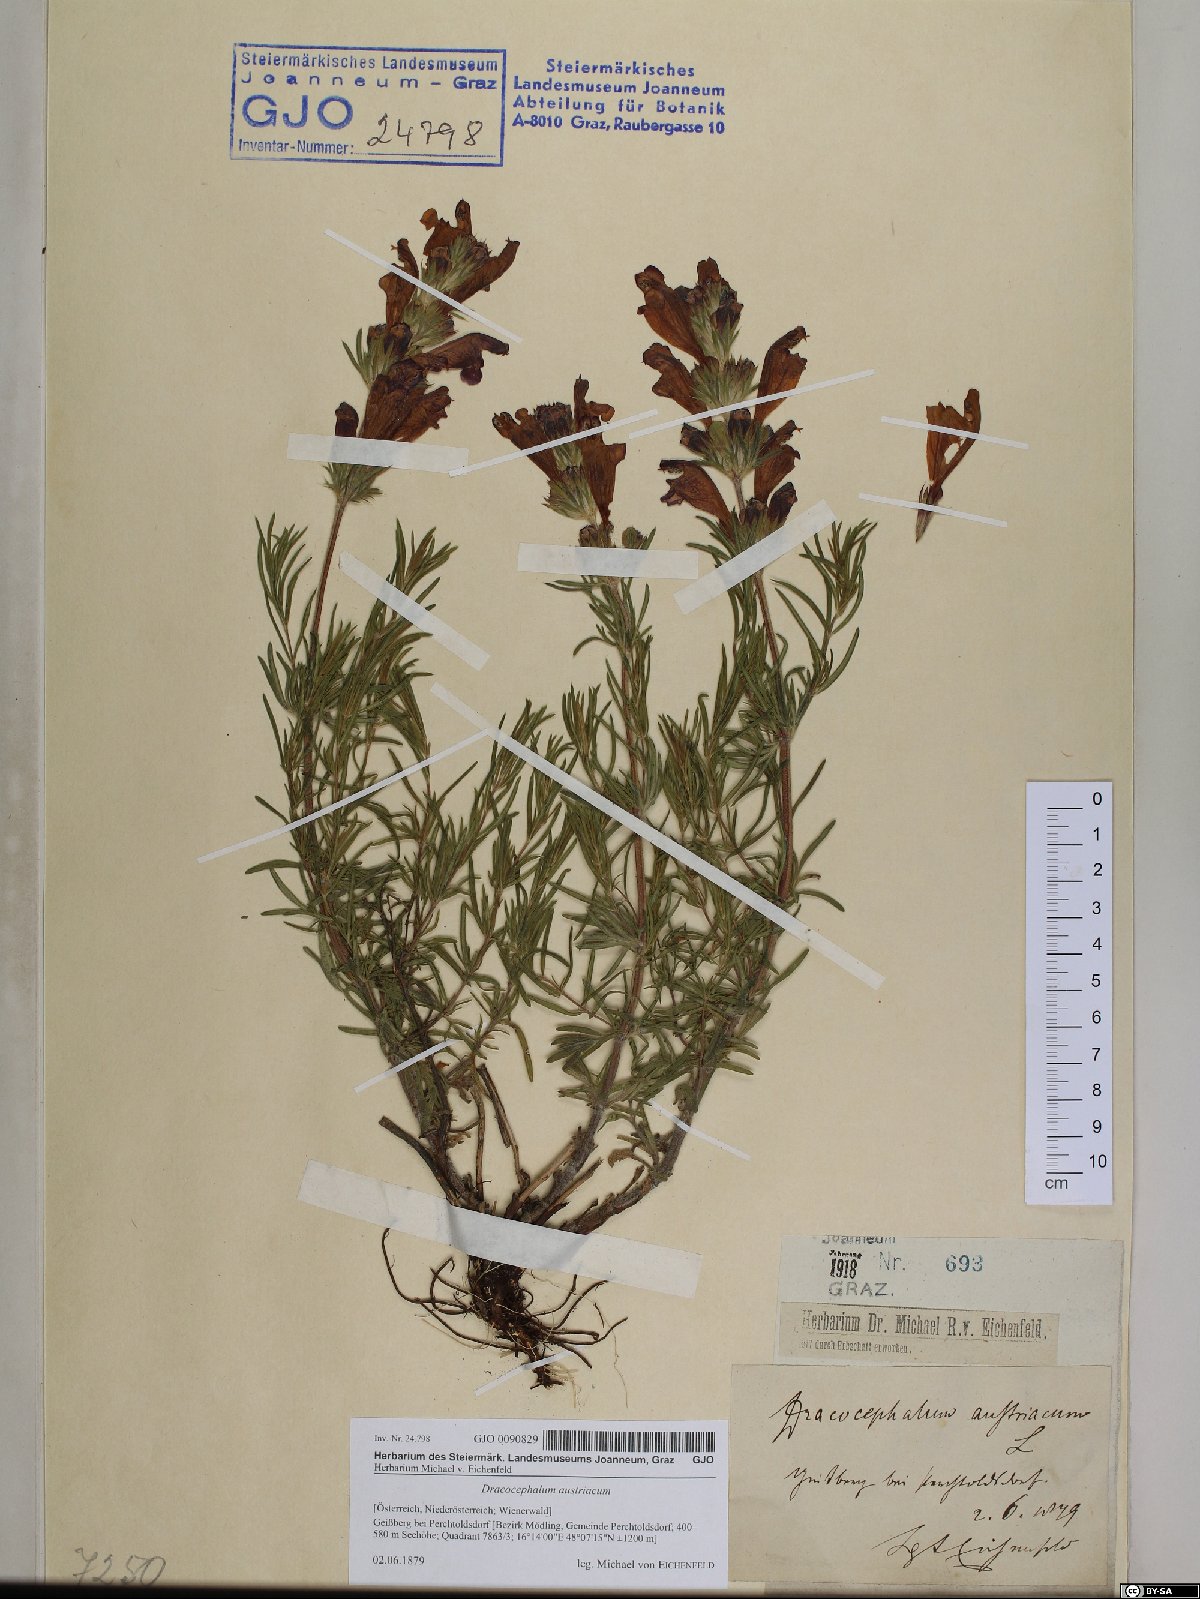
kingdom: Plantae
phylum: Tracheophyta
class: Magnoliopsida
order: Lamiales
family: Lamiaceae
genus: Dracocephalum
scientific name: Dracocephalum austriacum
